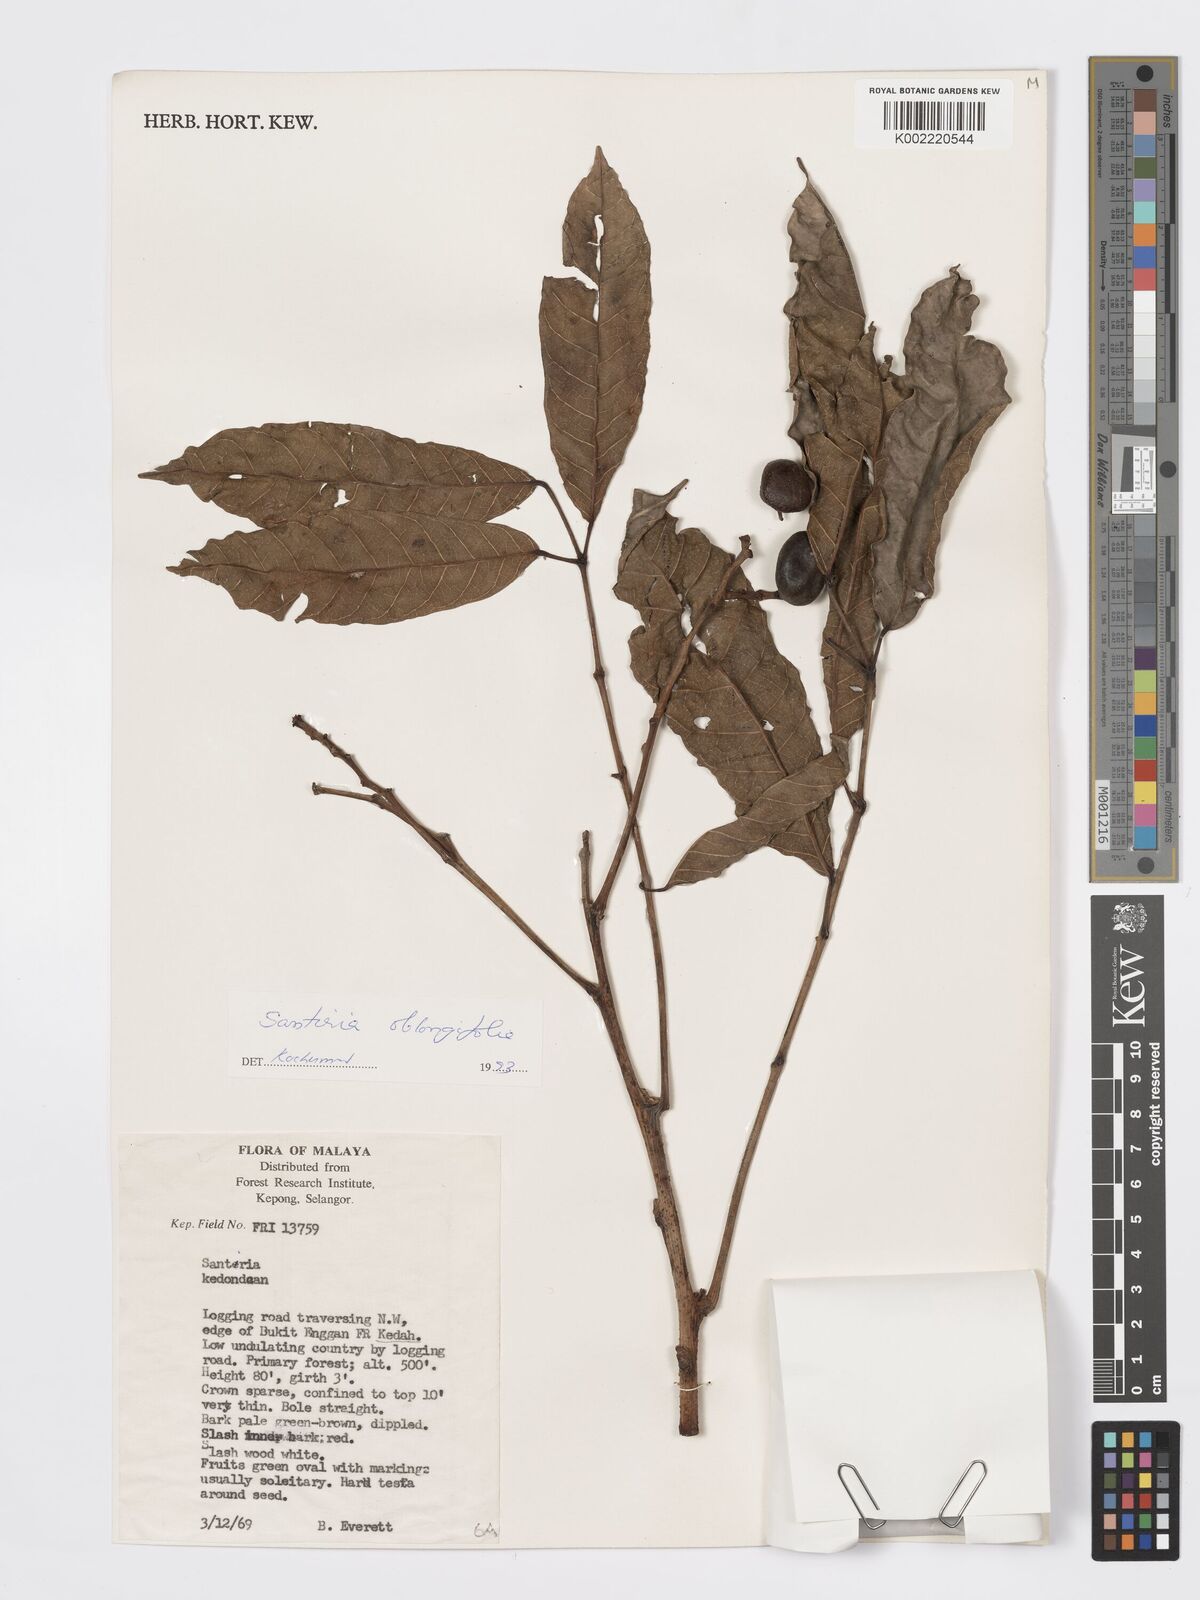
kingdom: Plantae
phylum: Tracheophyta
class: Magnoliopsida
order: Sapindales
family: Burseraceae
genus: Santiria
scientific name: Santiria oblongifolia
